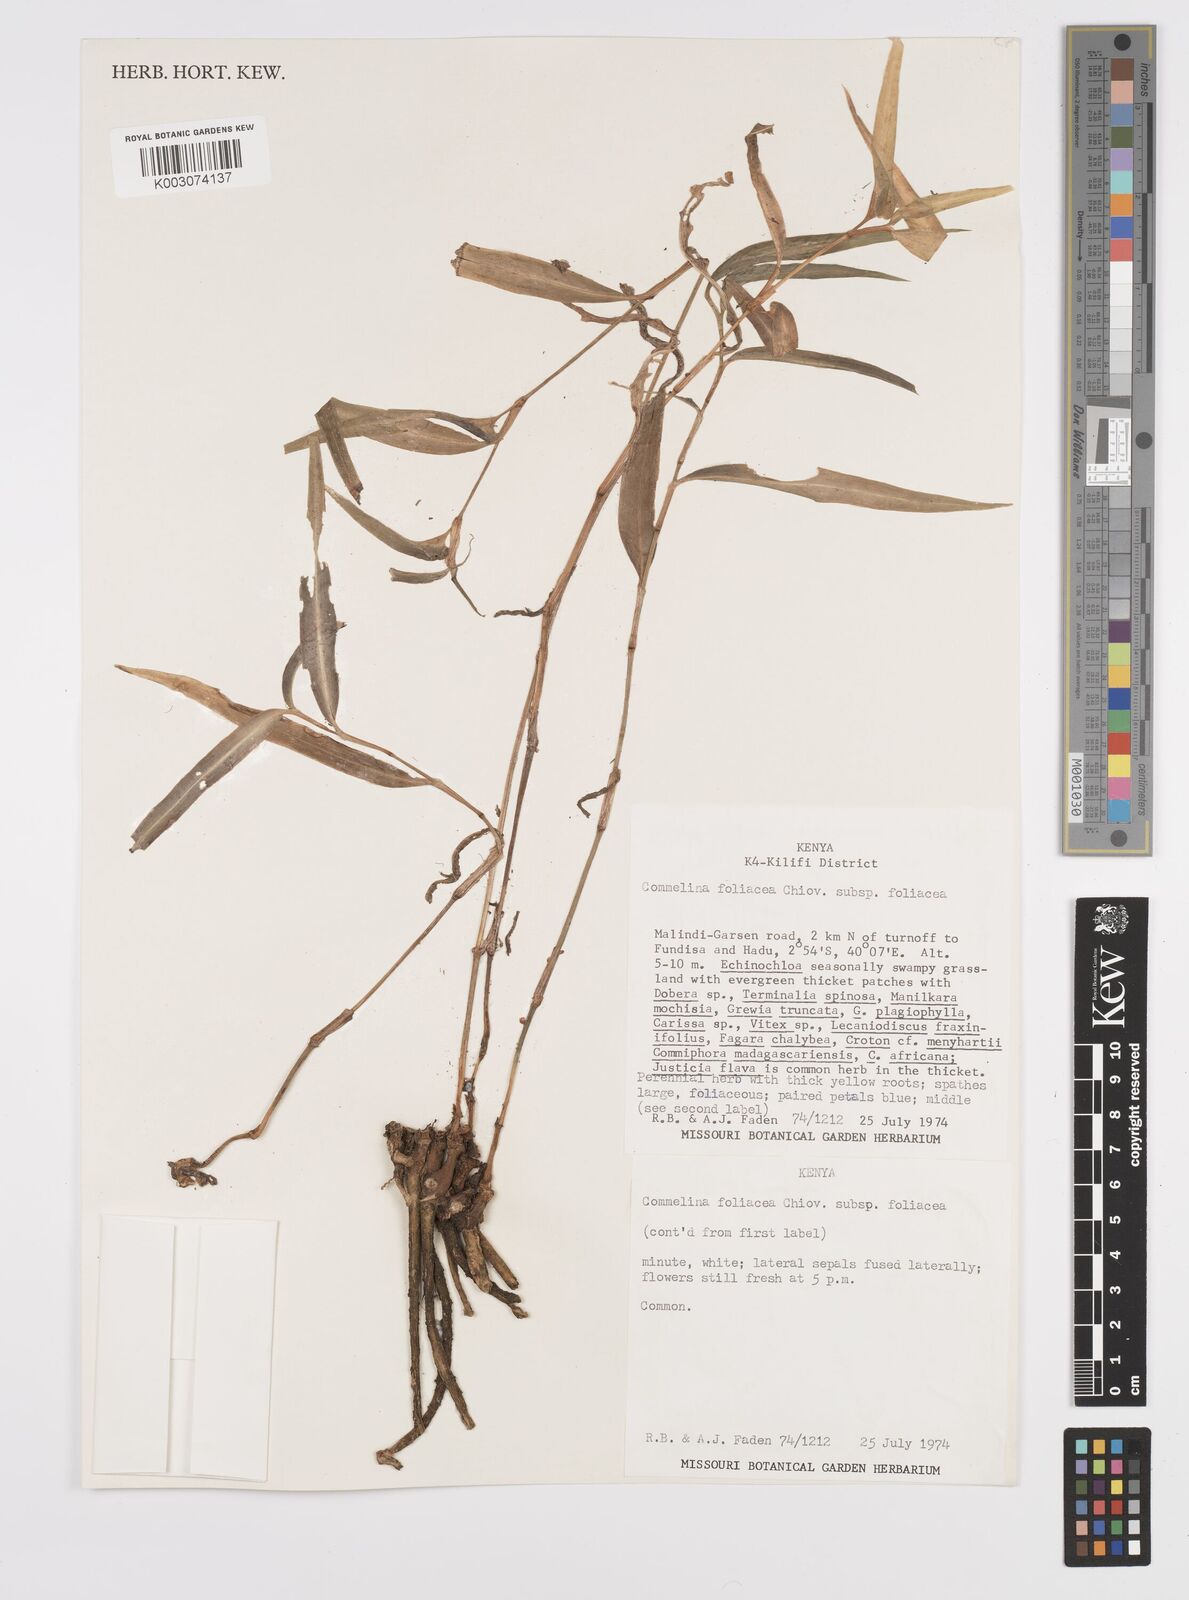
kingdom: Plantae
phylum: Tracheophyta
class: Liliopsida
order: Commelinales
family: Commelinaceae
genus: Commelina
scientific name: Commelina foliacea
